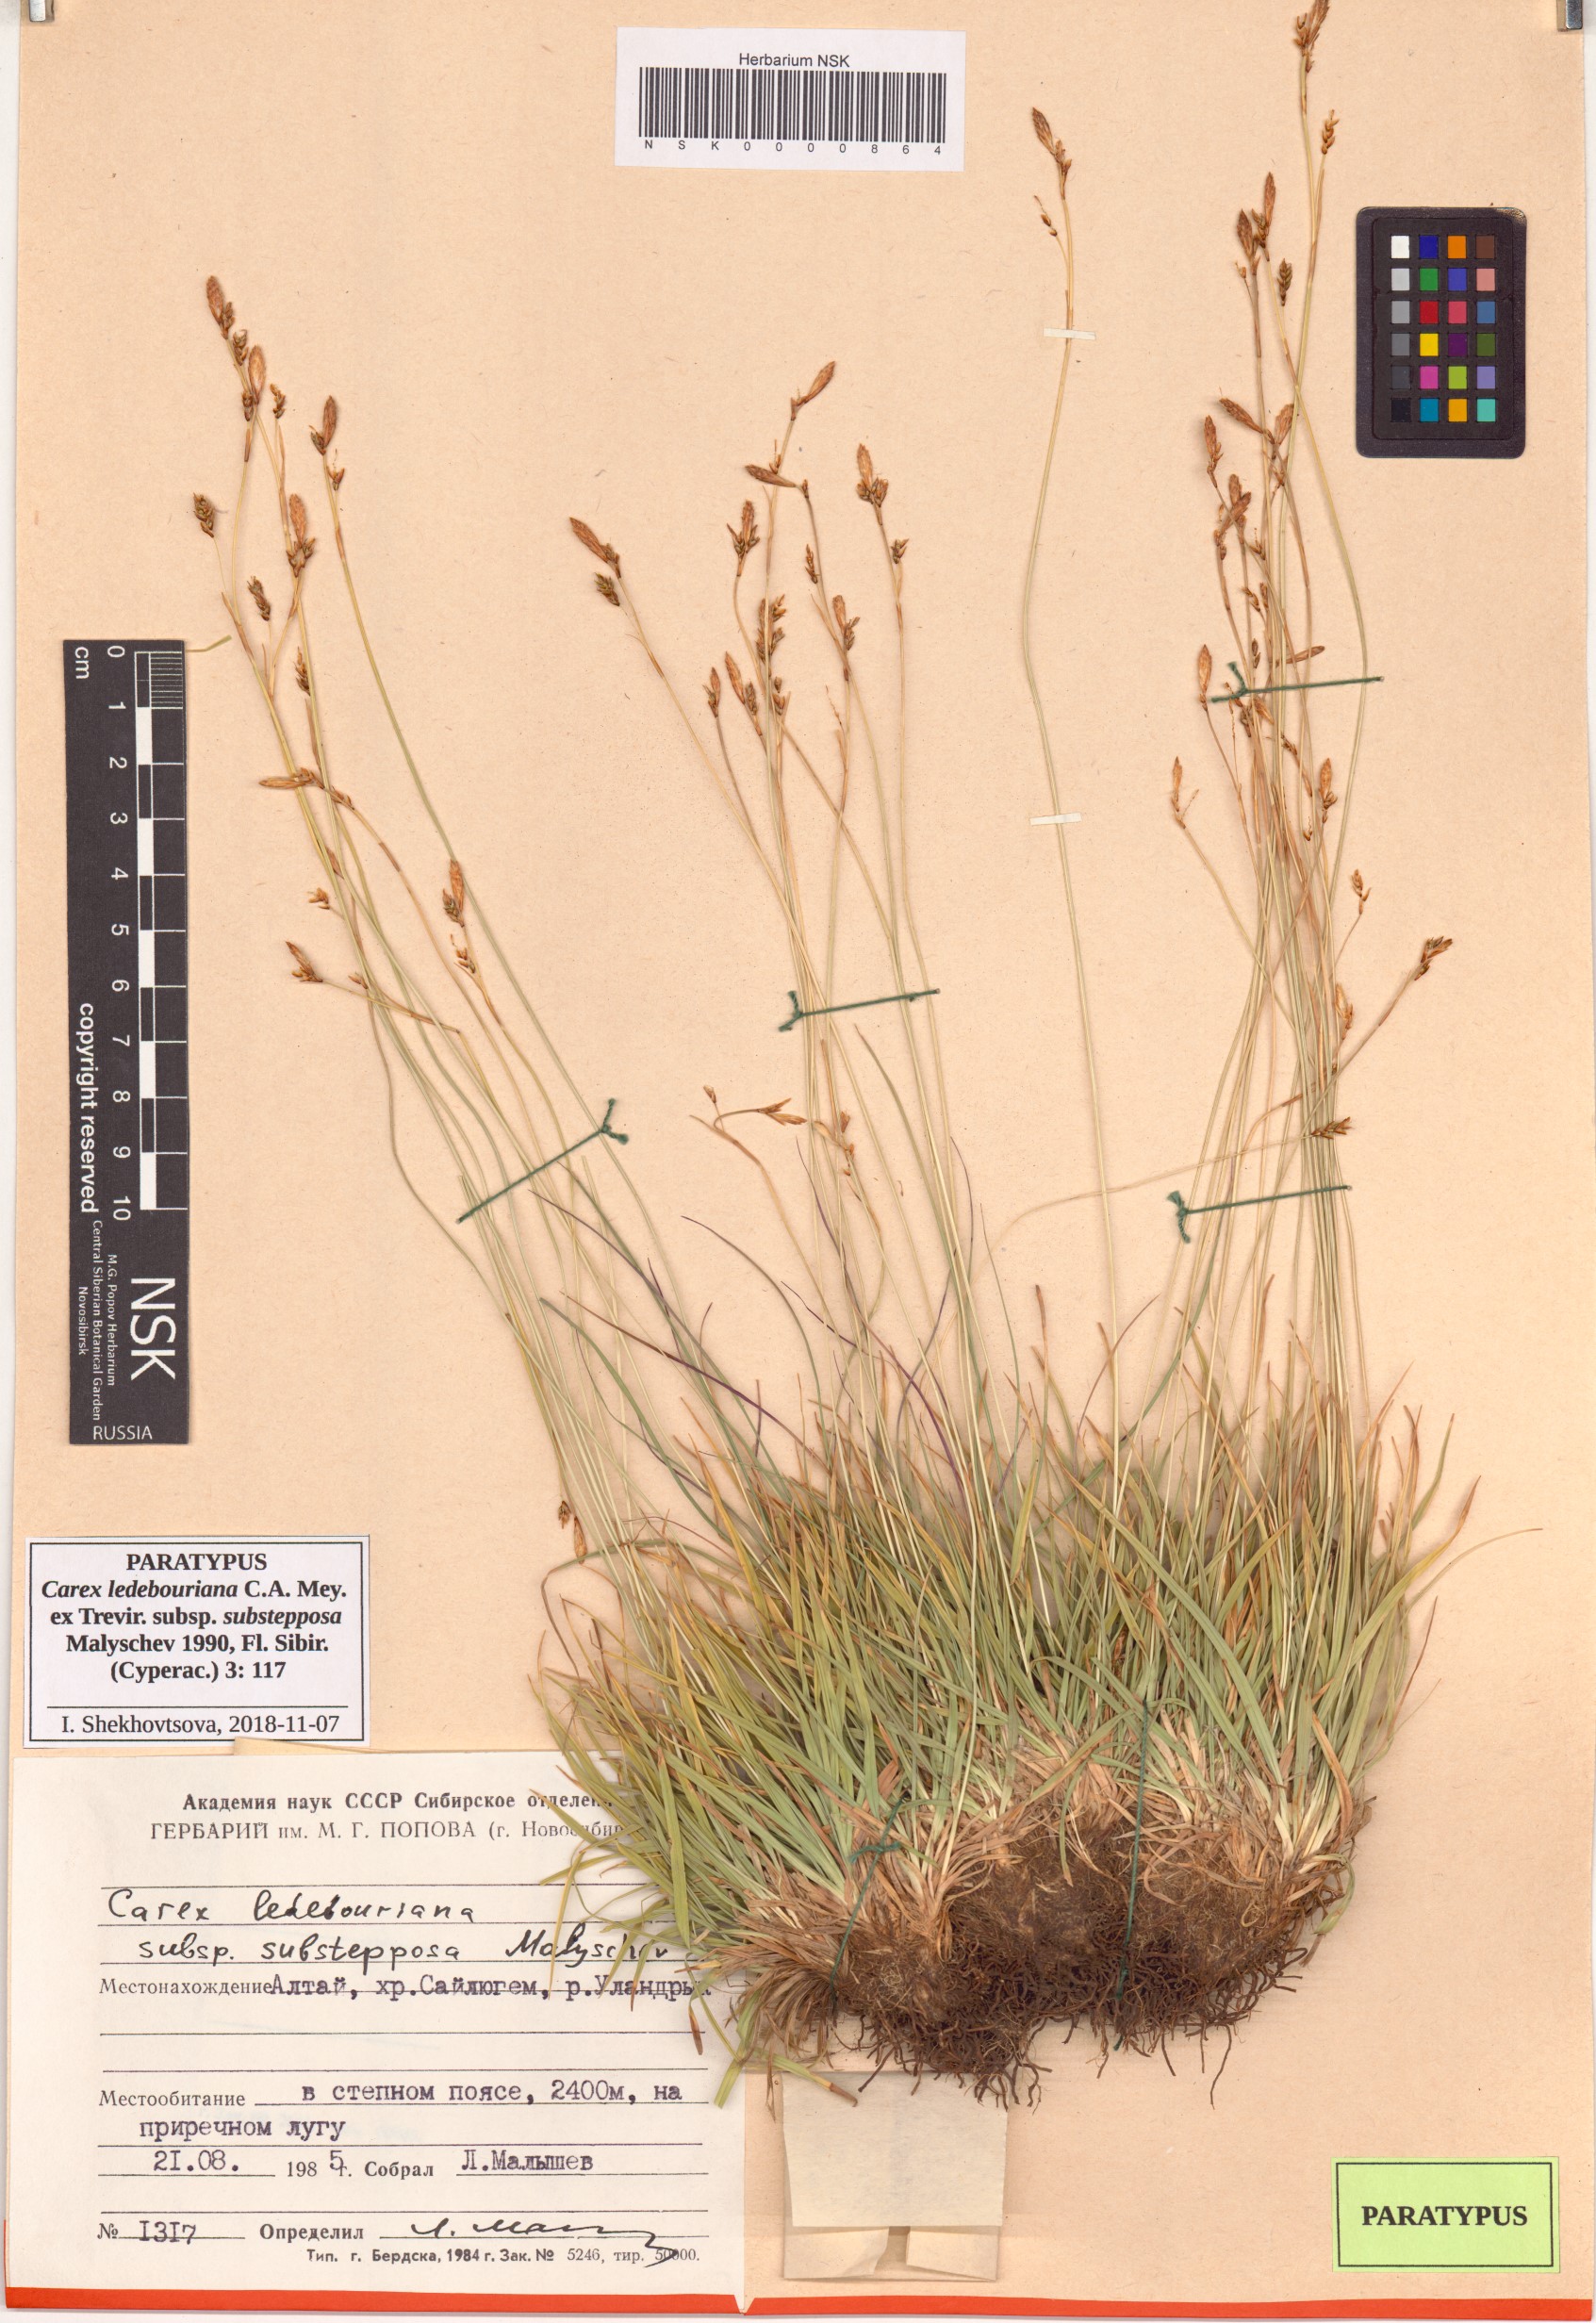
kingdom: Plantae
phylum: Tracheophyta
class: Liliopsida
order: Poales
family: Cyperaceae
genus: Carex
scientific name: Carex ledebouriana
